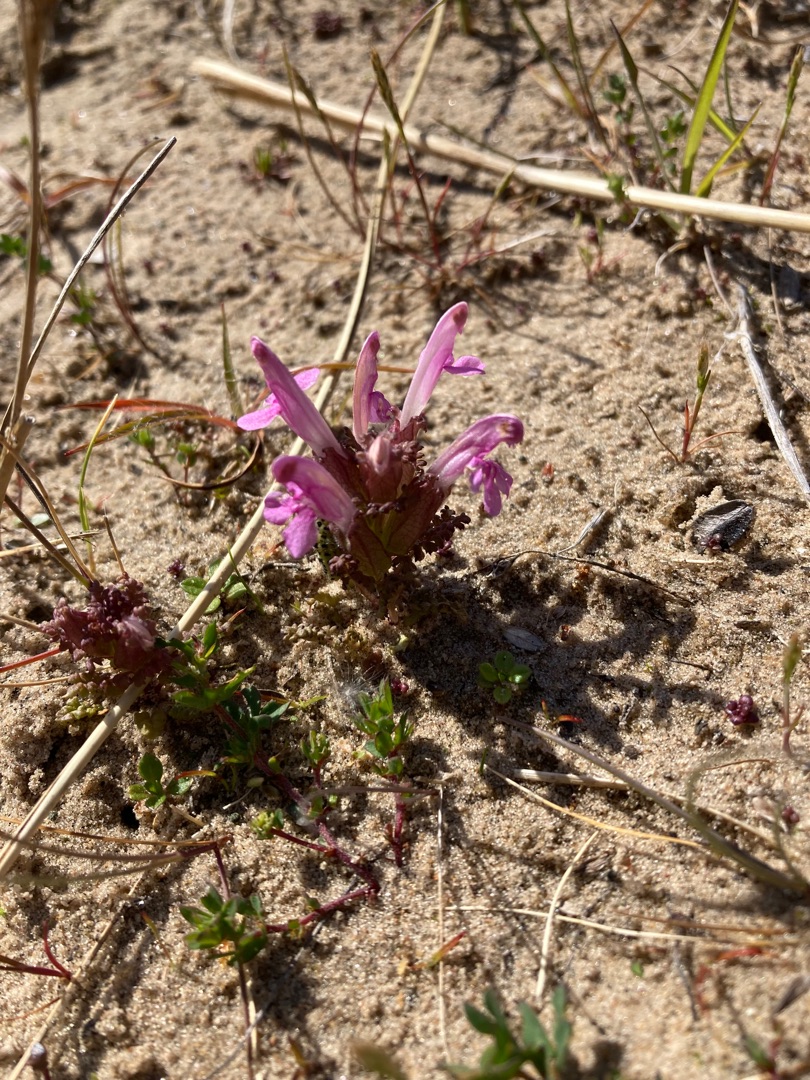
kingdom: Plantae
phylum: Tracheophyta
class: Magnoliopsida
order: Lamiales
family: Orobanchaceae
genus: Pedicularis
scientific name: Pedicularis sylvatica
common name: Mose-troldurt
